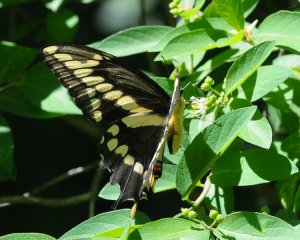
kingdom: Animalia
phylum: Arthropoda
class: Insecta
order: Lepidoptera
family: Papilionidae
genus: Papilio
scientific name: Papilio cresphontes
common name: Eastern Giant Swallowtail
